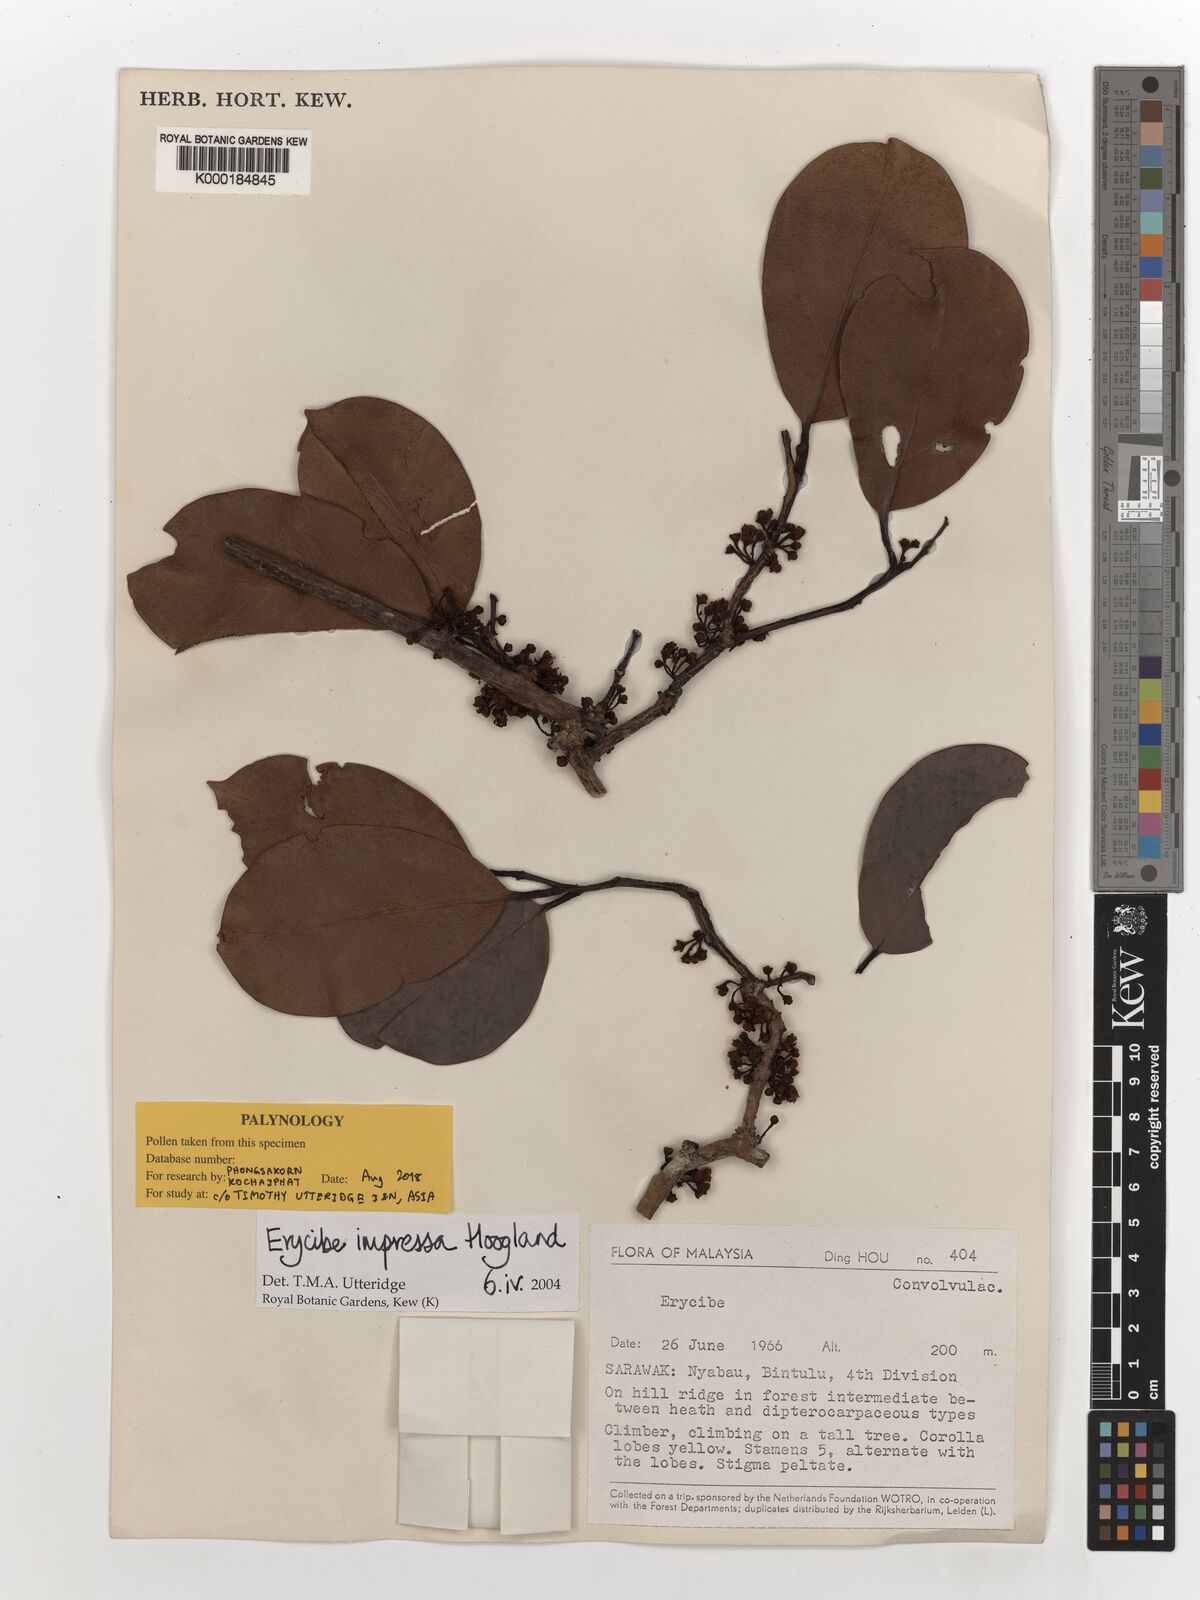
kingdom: Plantae
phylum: Tracheophyta
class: Magnoliopsida
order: Solanales
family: Convolvulaceae
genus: Erycibe
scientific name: Erycibe impressa
